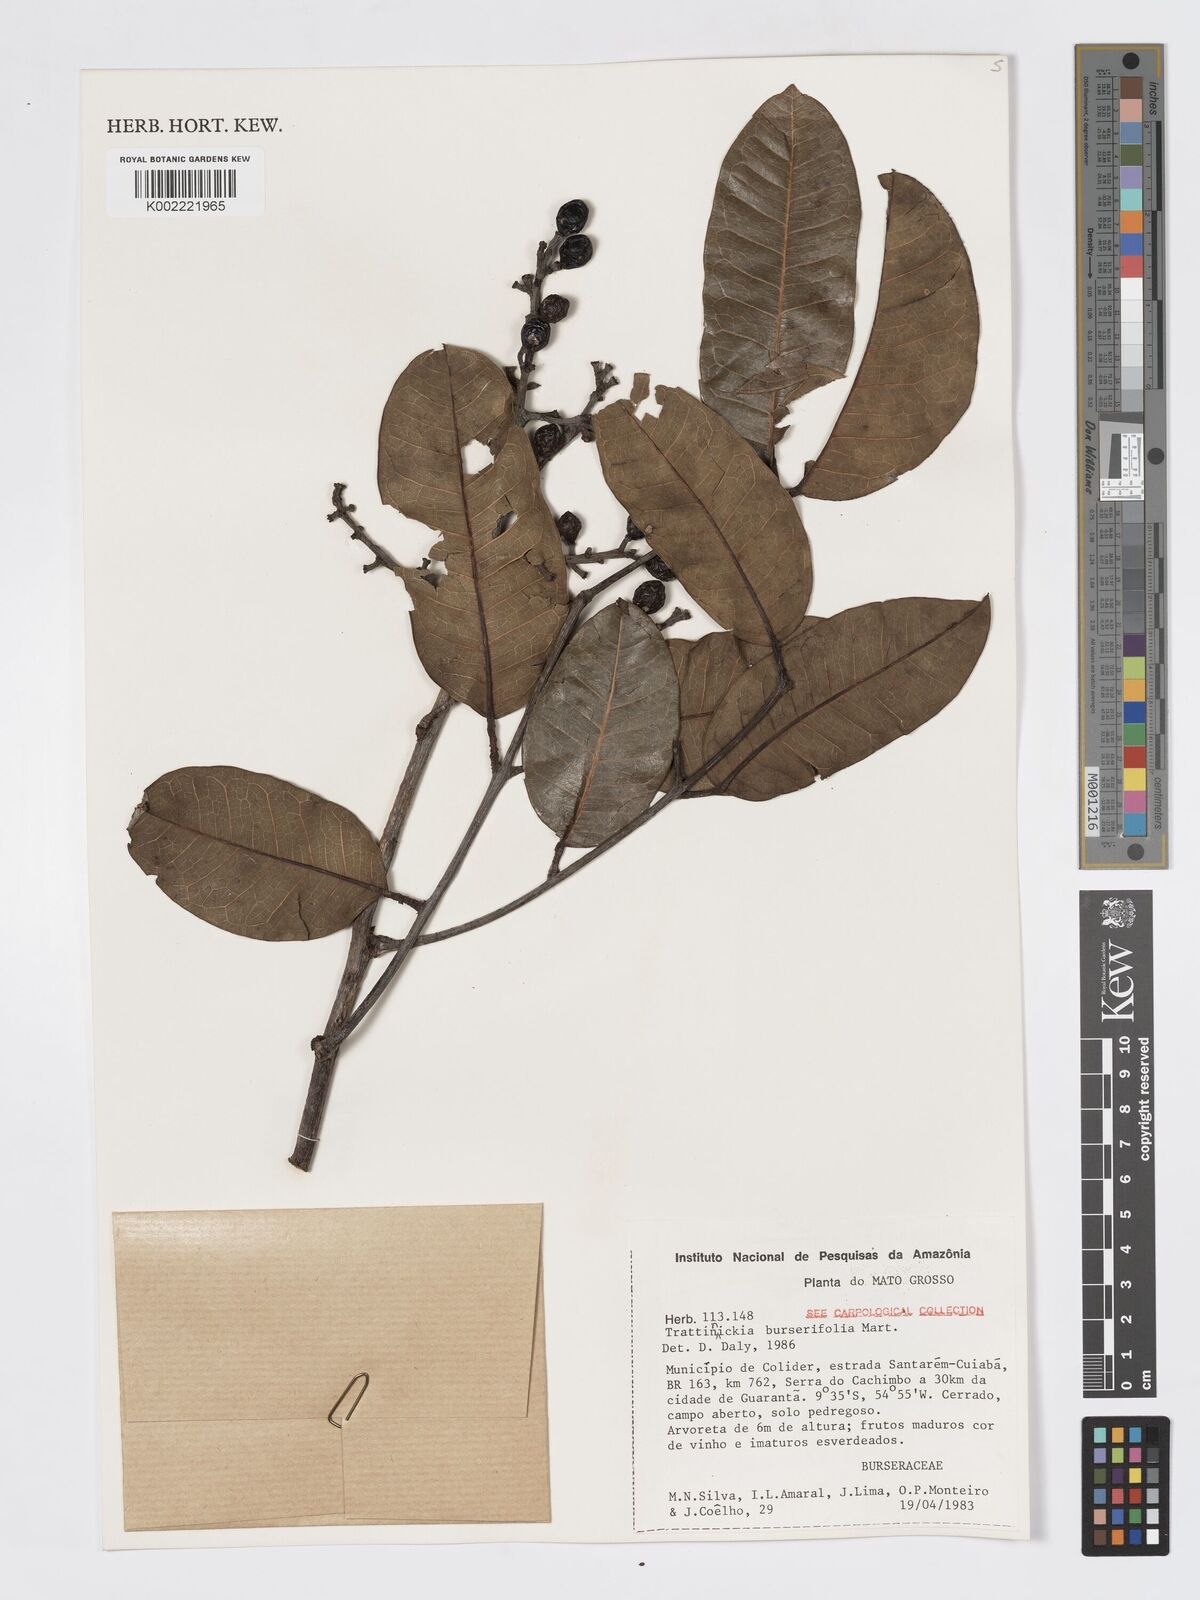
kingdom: Plantae
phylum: Tracheophyta
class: Magnoliopsida
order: Sapindales
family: Burseraceae
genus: Trattinnickia
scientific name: Trattinnickia burserifolia
